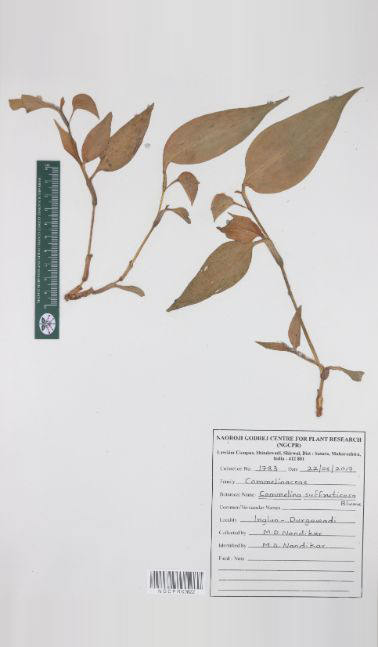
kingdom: Plantae
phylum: Tracheophyta
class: Liliopsida
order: Commelinales
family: Commelinaceae
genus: Commelina
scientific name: Commelina suffruticosa
